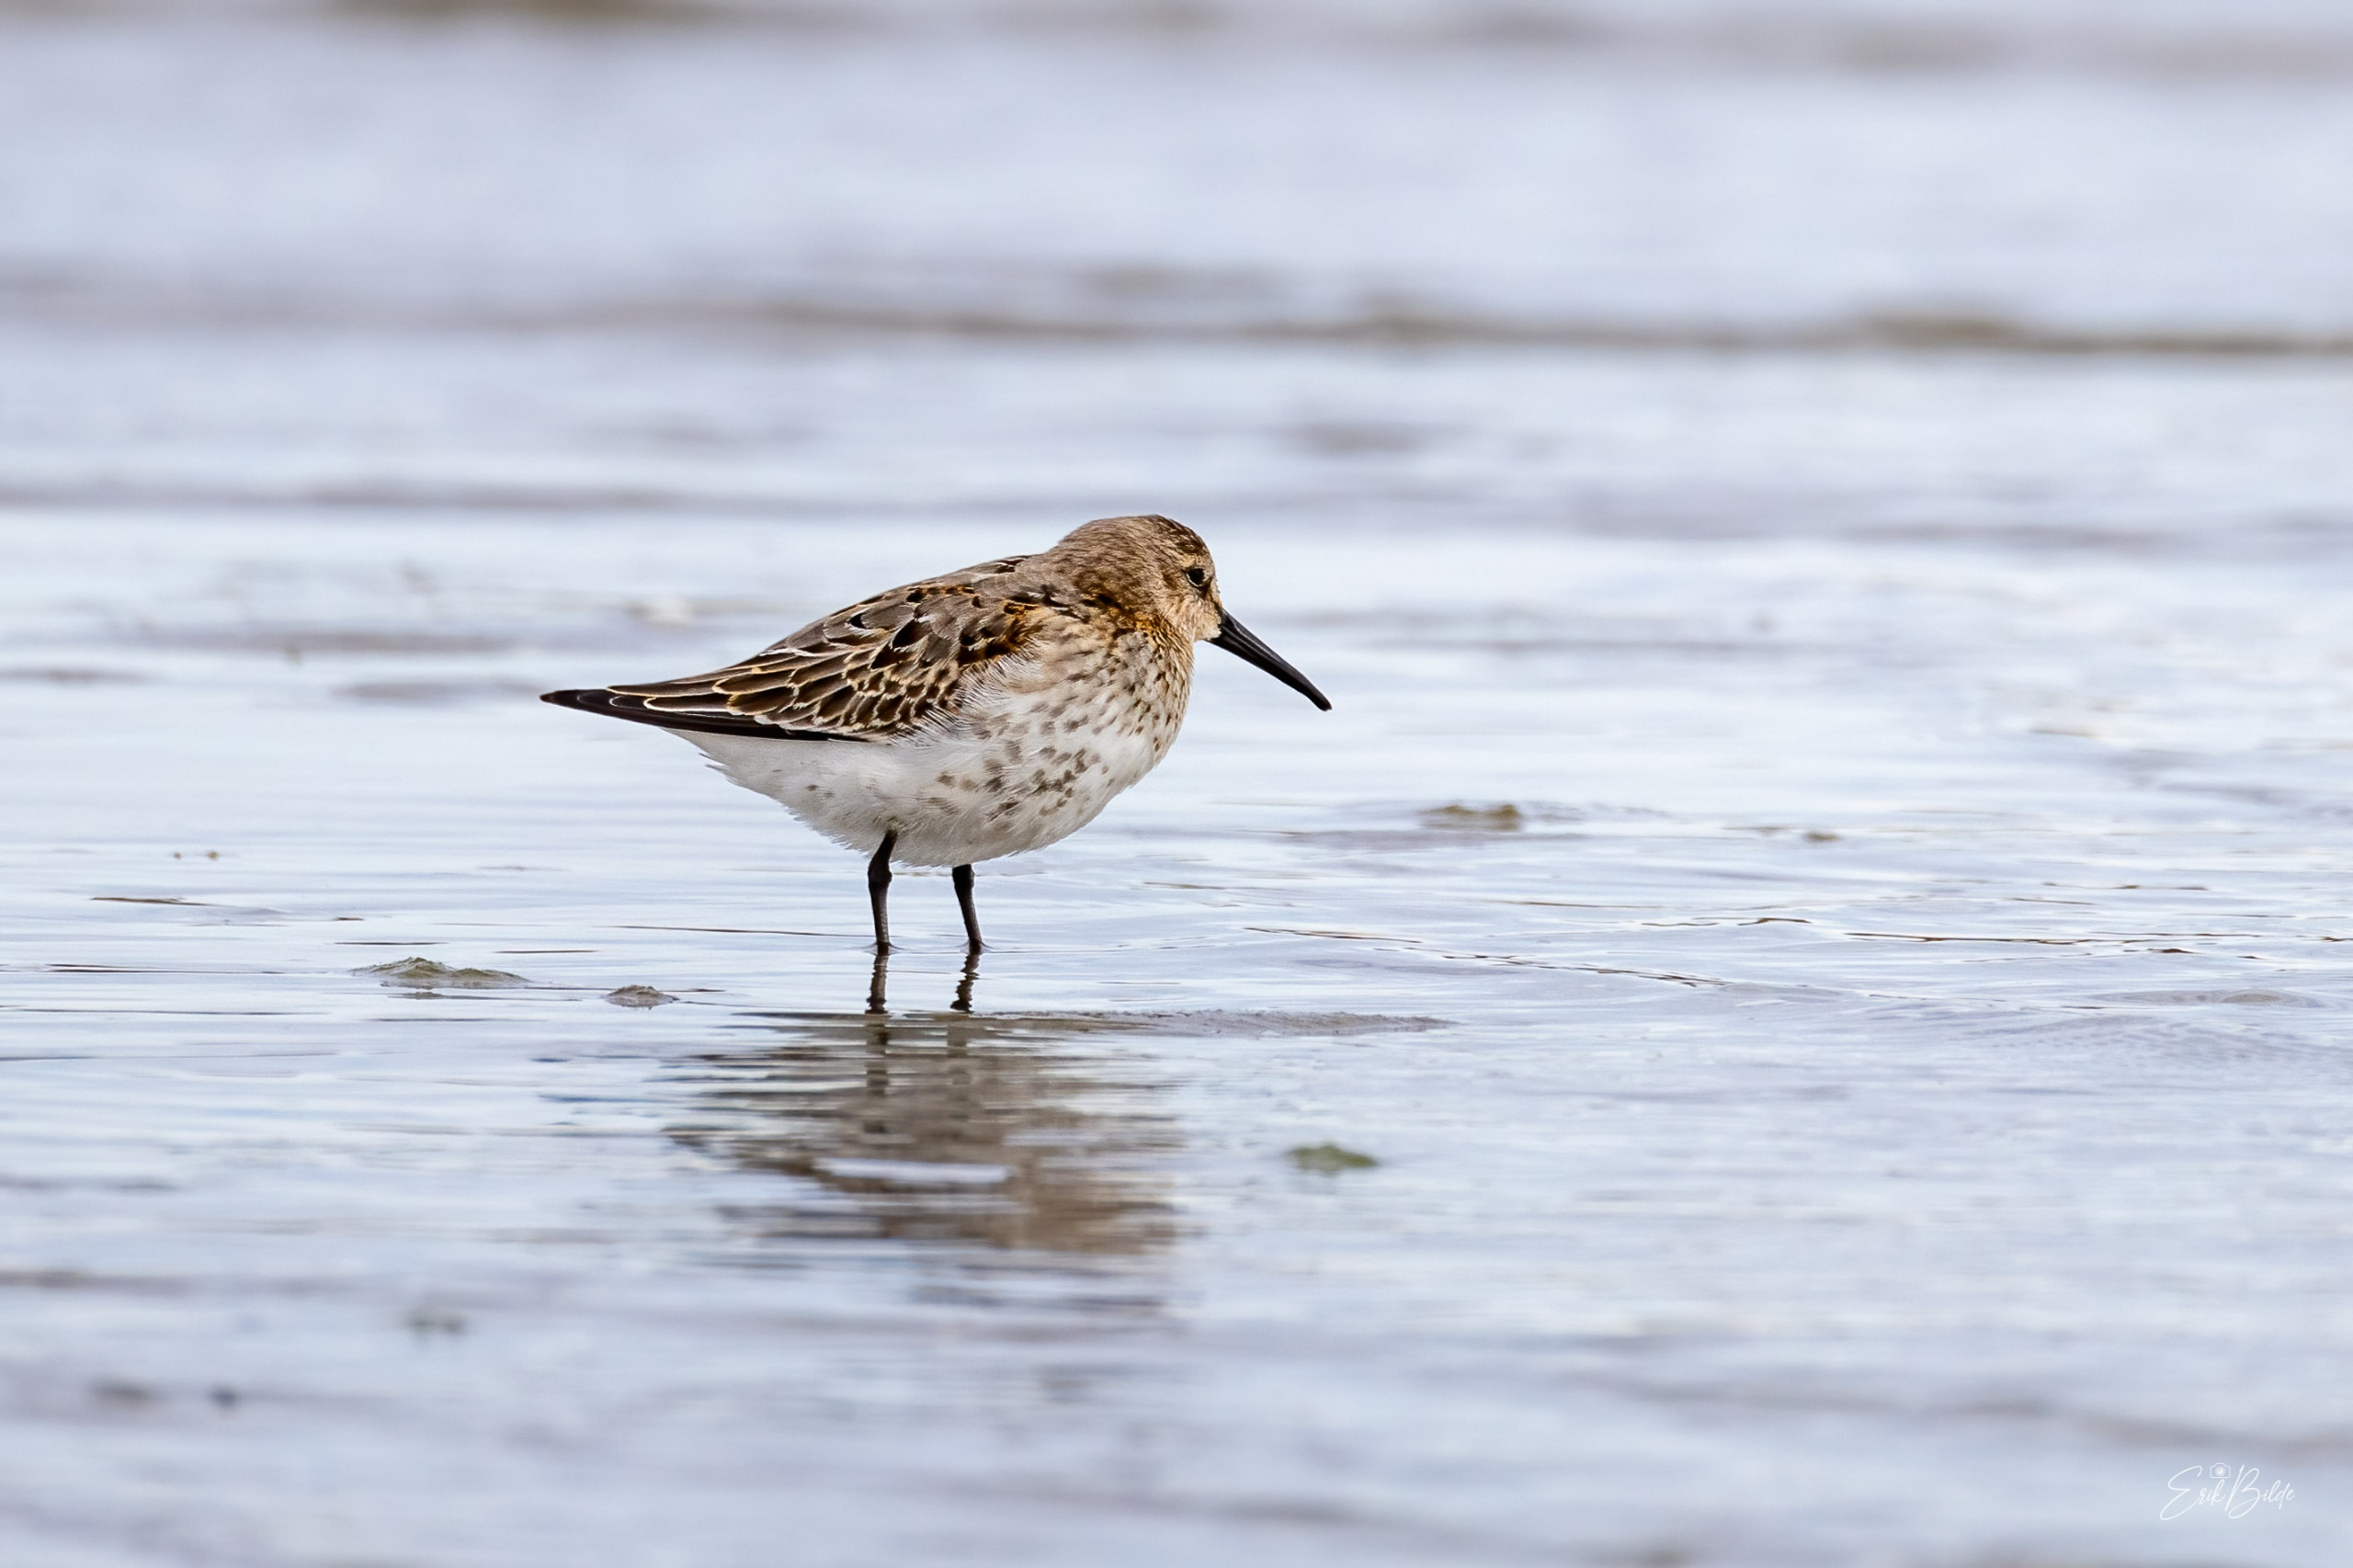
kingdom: Animalia
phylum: Chordata
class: Aves
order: Charadriiformes
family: Scolopacidae
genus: Calidris
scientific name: Calidris alpina
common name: Almindelig ryle
